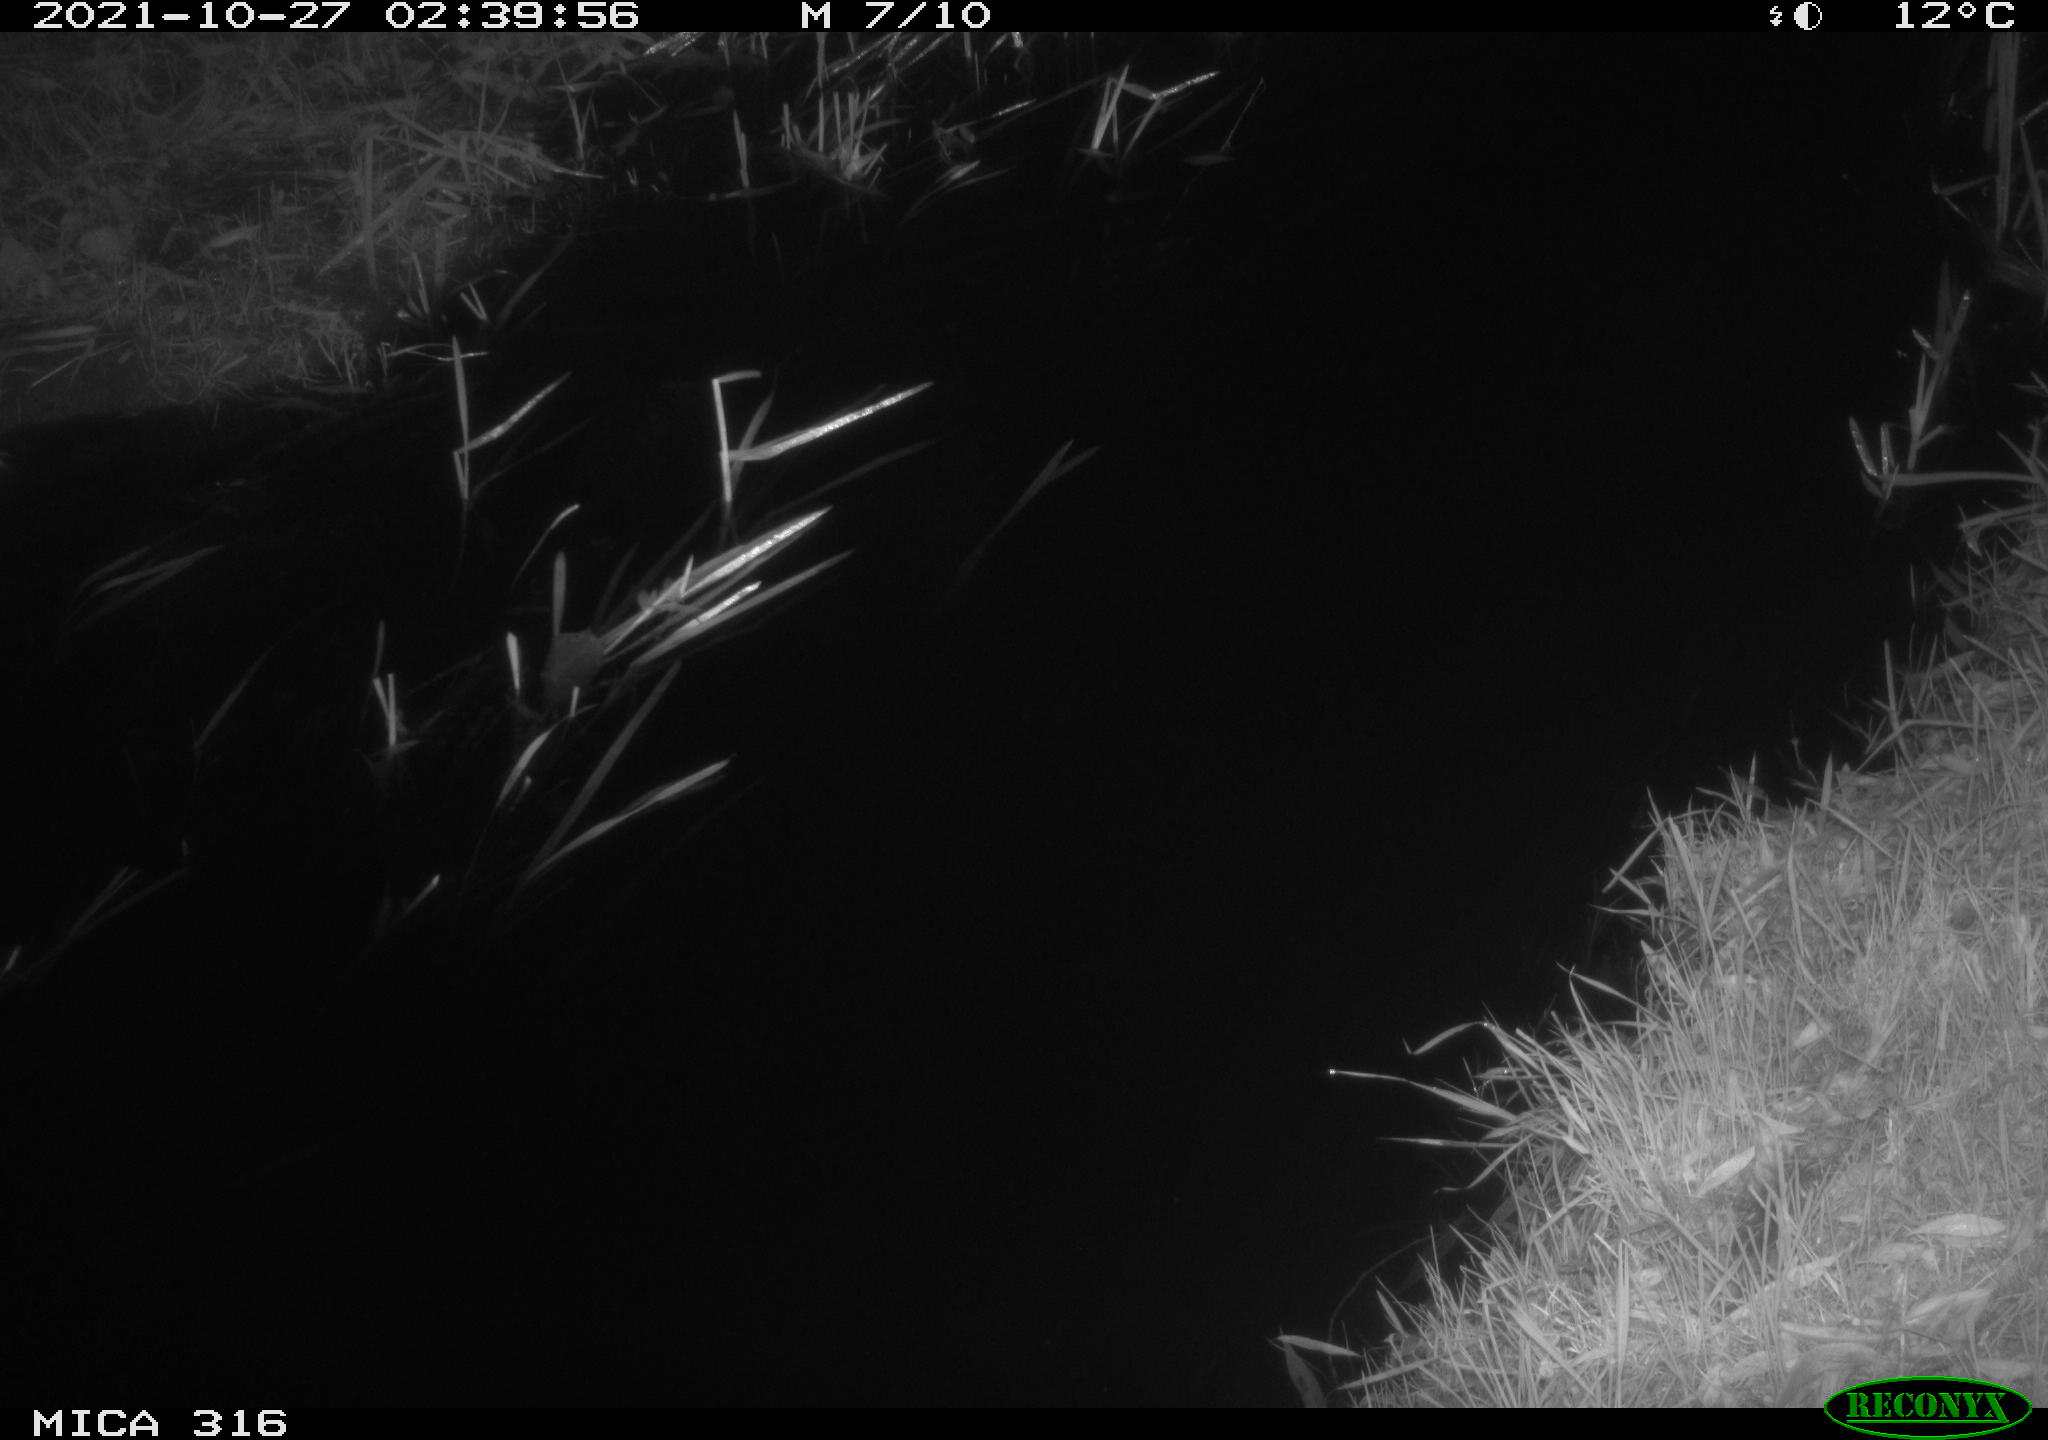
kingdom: Animalia
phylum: Chordata
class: Mammalia
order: Rodentia
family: Muridae
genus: Rattus
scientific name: Rattus norvegicus
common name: Brown rat
